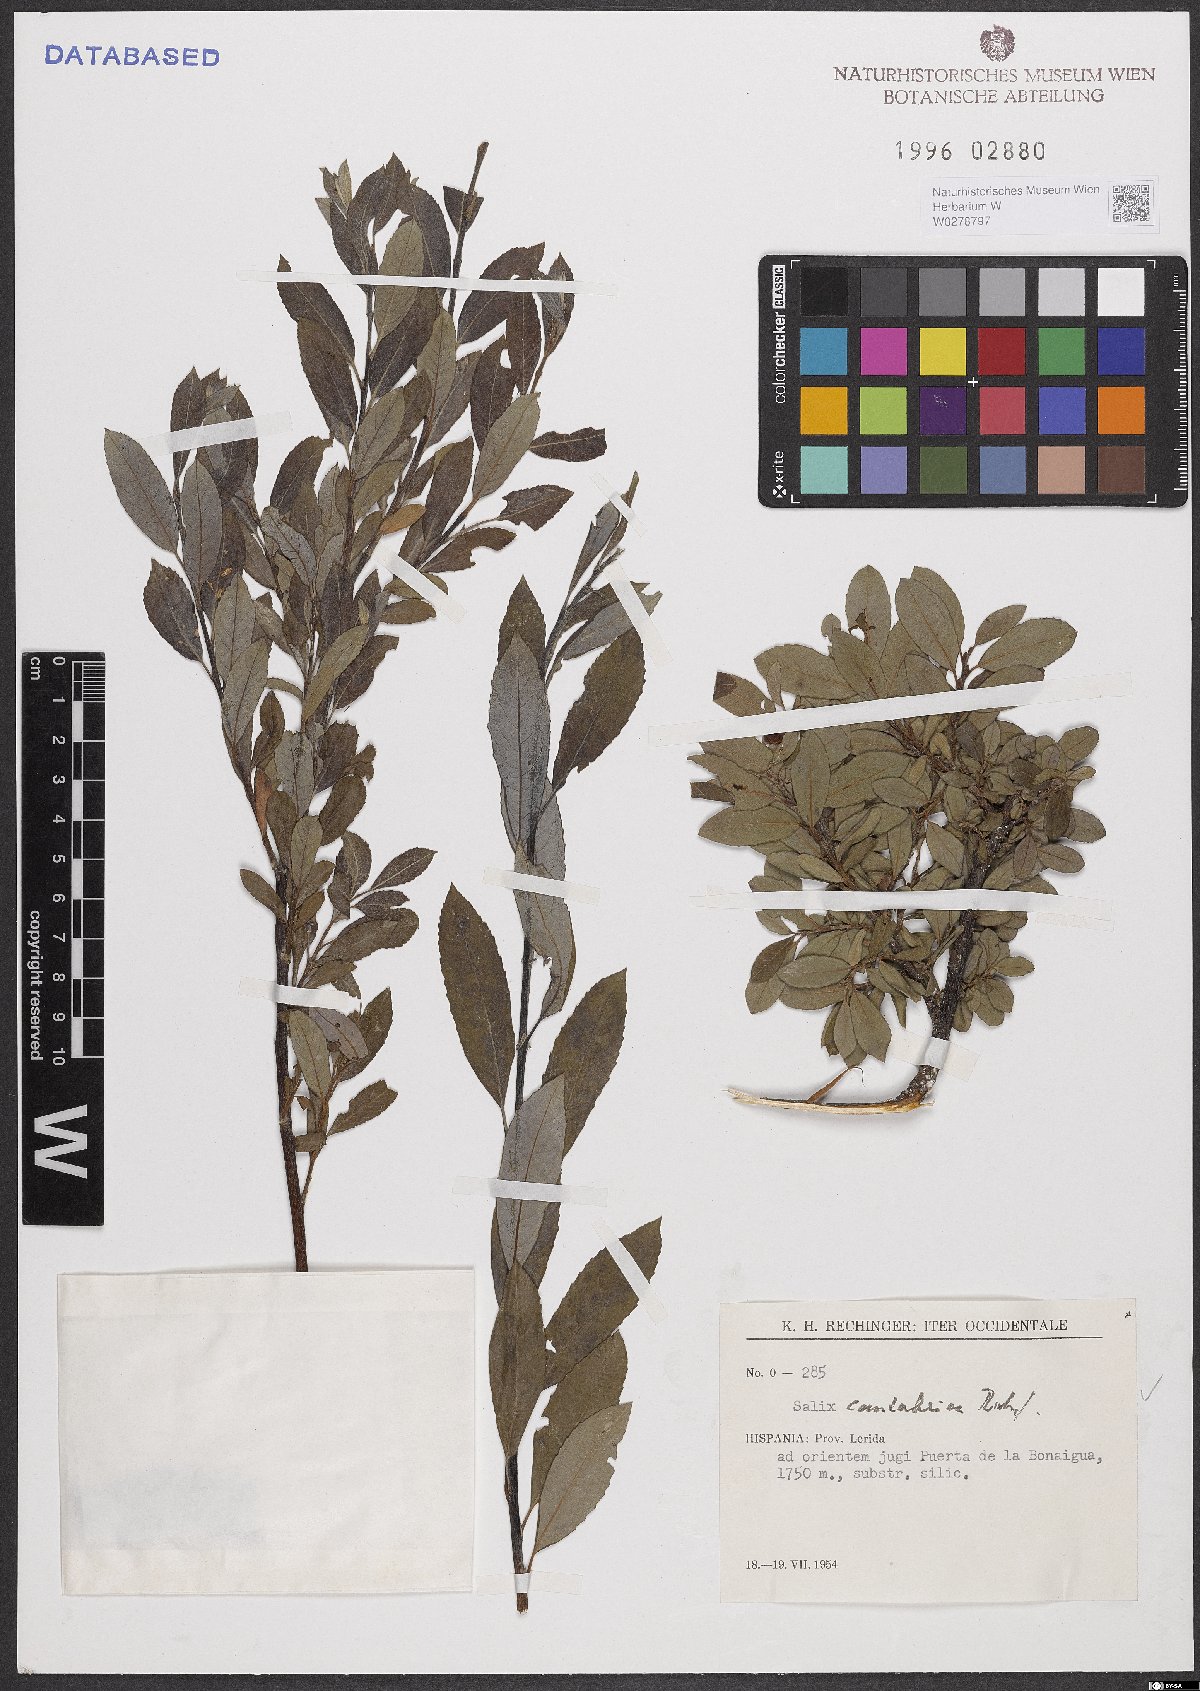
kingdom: Plantae
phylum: Tracheophyta
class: Magnoliopsida
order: Malpighiales
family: Salicaceae
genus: Salix
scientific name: Salix cantabrica
